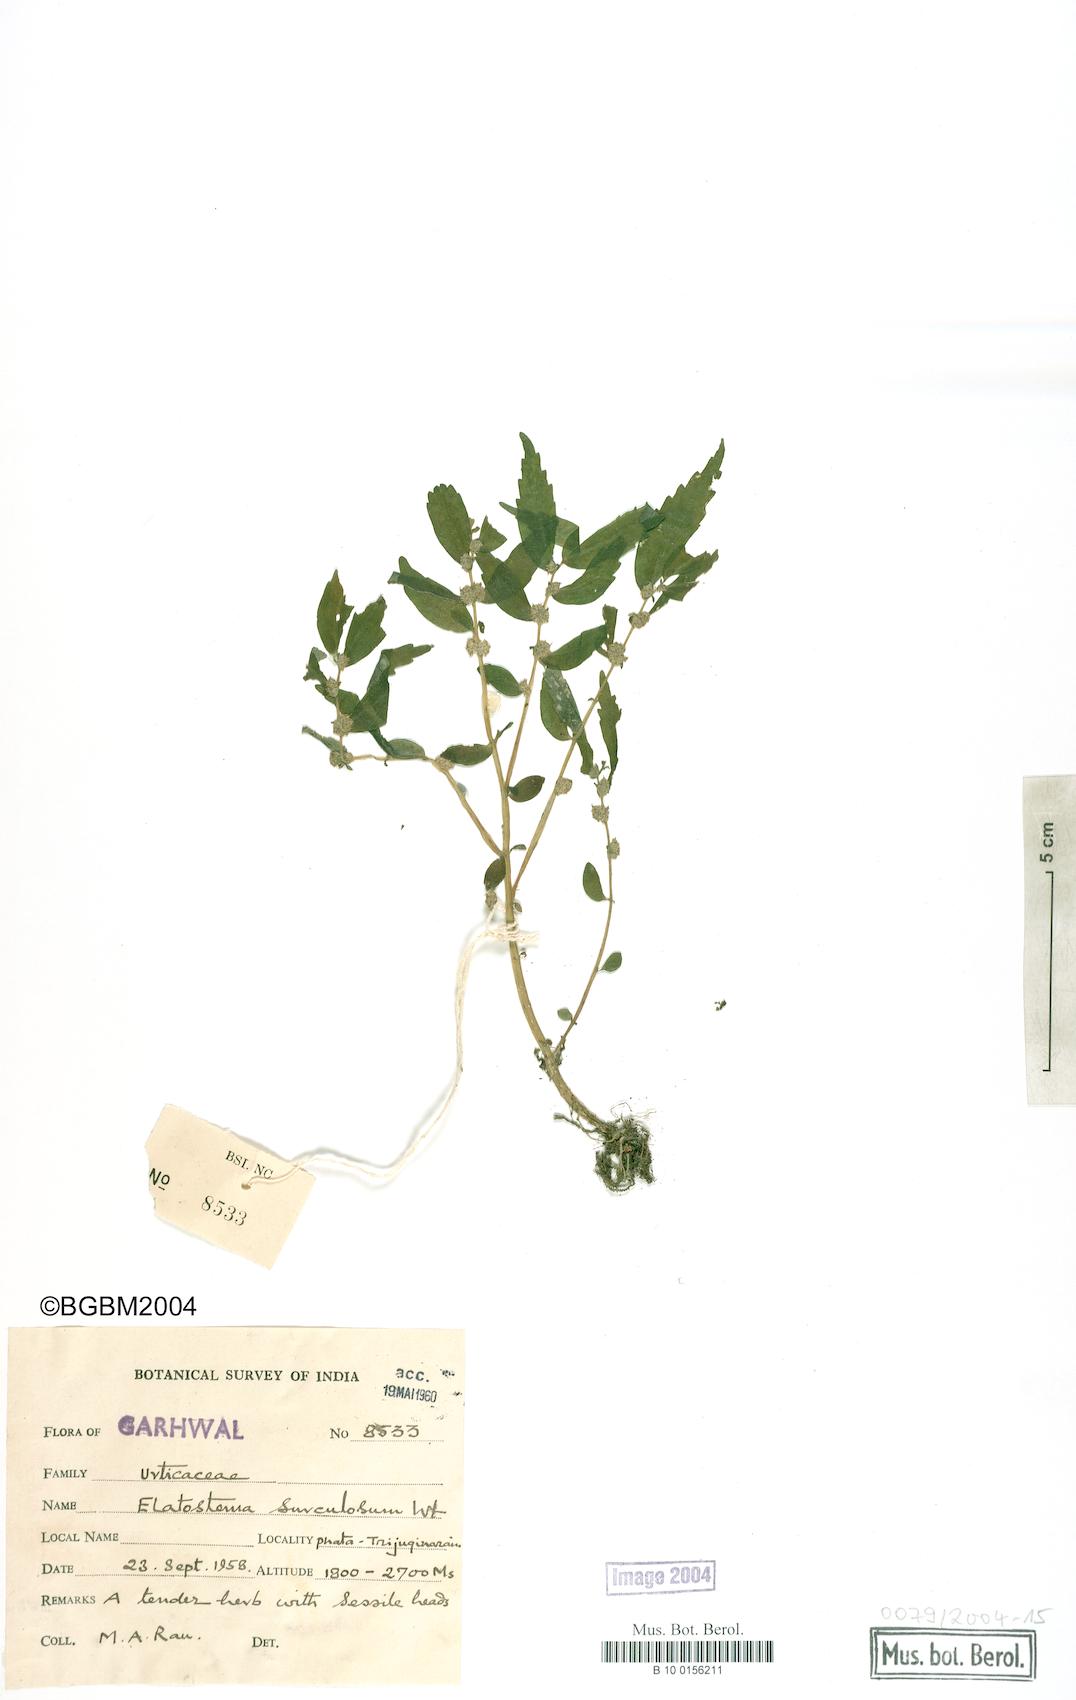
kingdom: Plantae
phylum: Tracheophyta
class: Magnoliopsida
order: Rosales
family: Urticaceae
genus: Elatostema
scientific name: Elatostema monandrum
